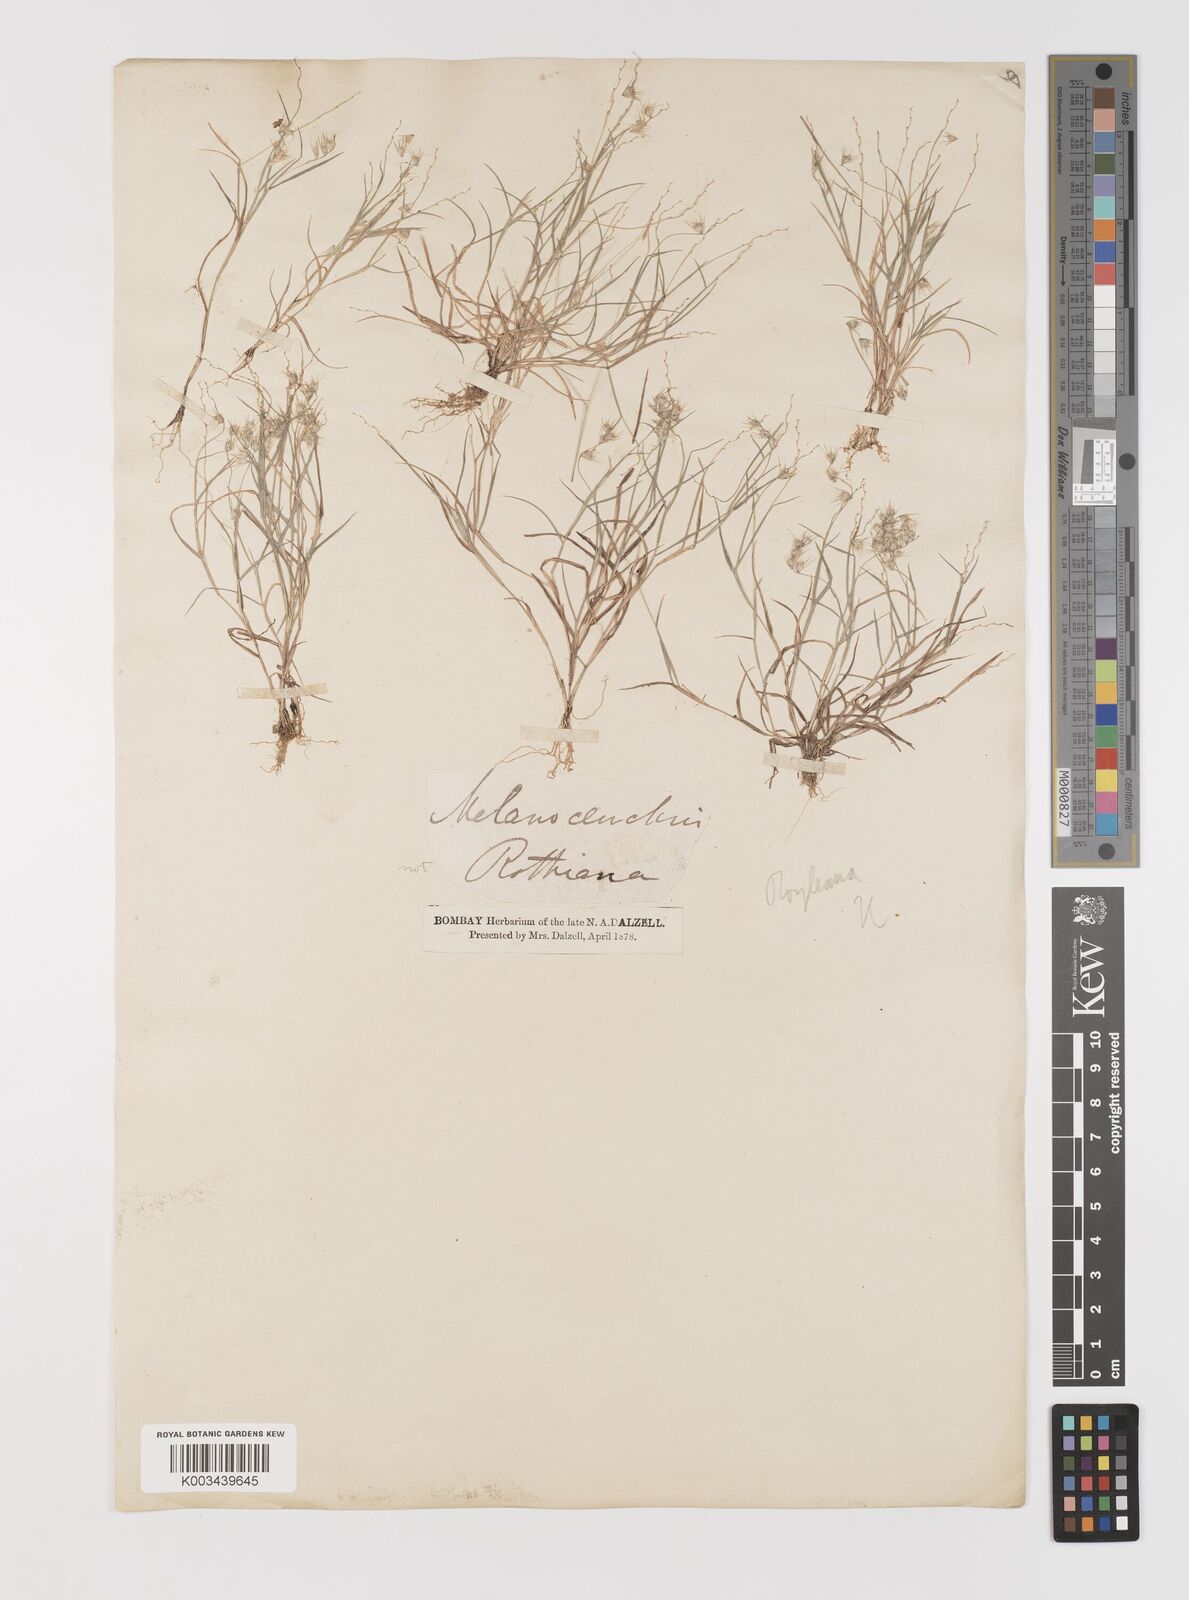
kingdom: Plantae
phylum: Tracheophyta
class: Liliopsida
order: Poales
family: Poaceae
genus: Melanocenchris
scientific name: Melanocenchris jacquemontii
